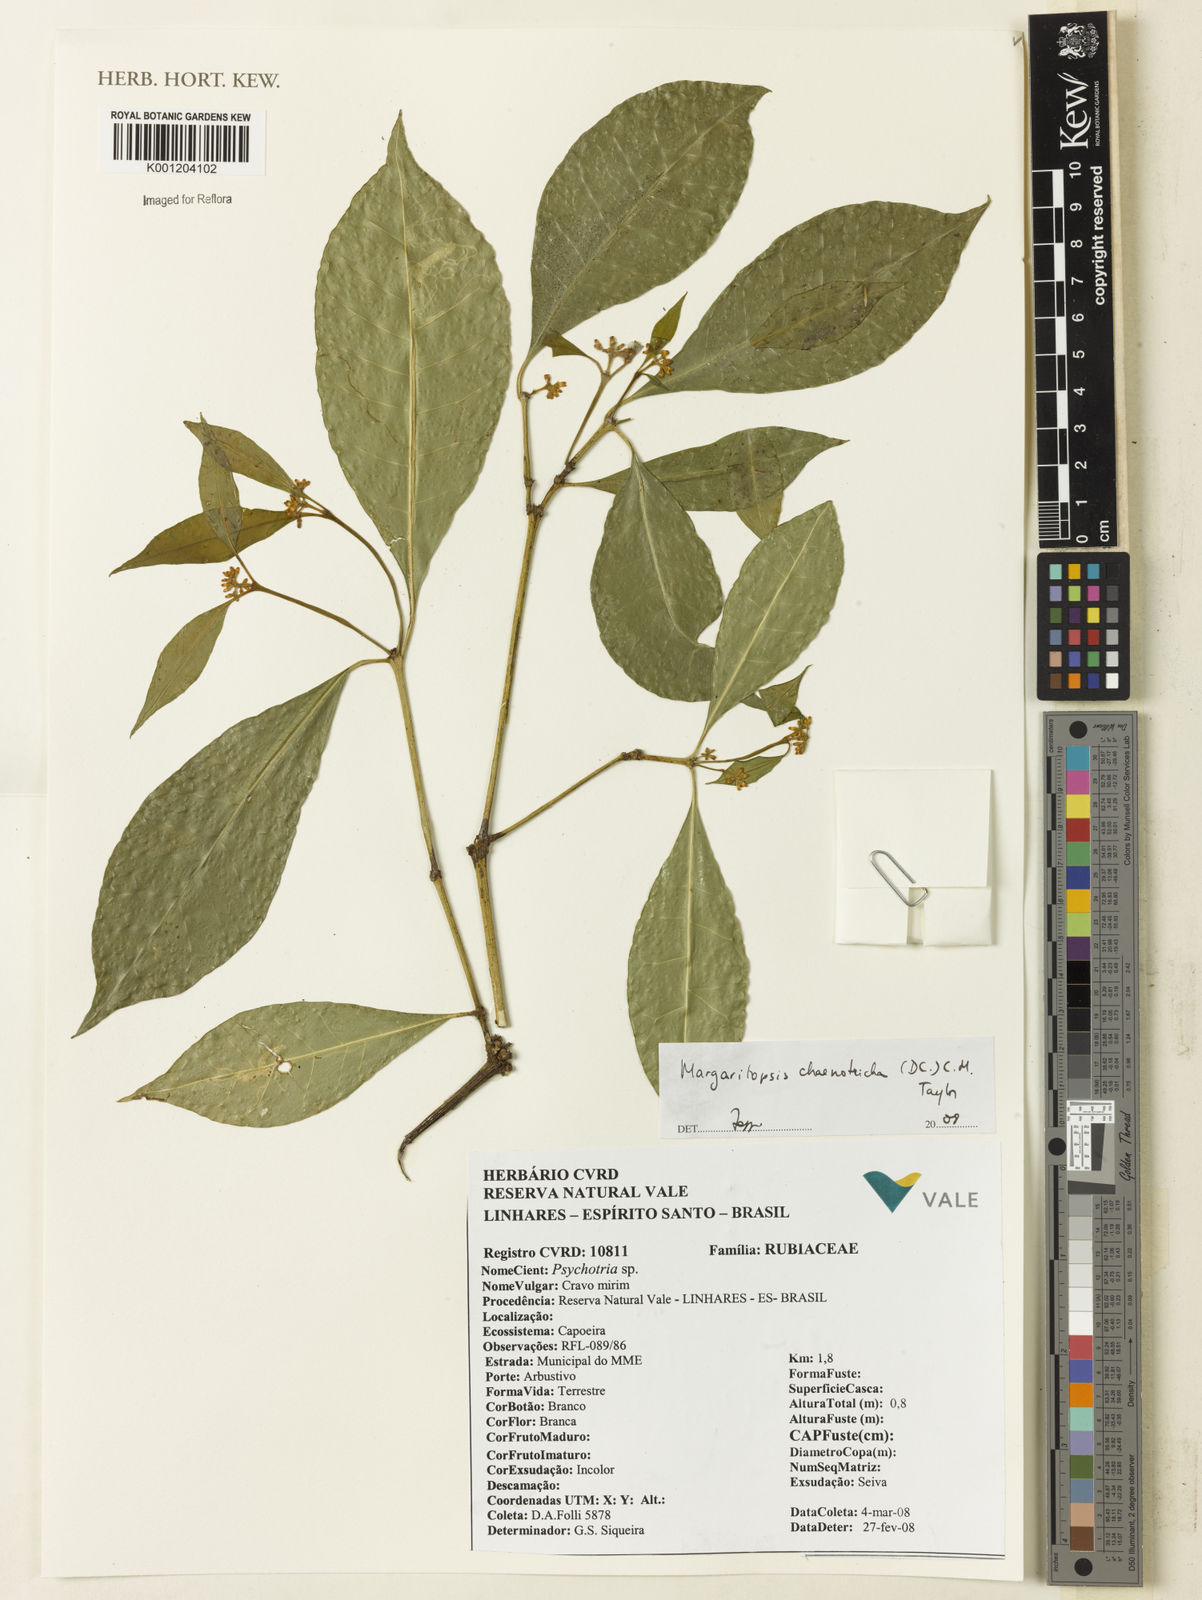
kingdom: Plantae
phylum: Tracheophyta
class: Magnoliopsida
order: Gentianales
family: Rubiaceae
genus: Eumachia
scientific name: Eumachia chaenotricha
